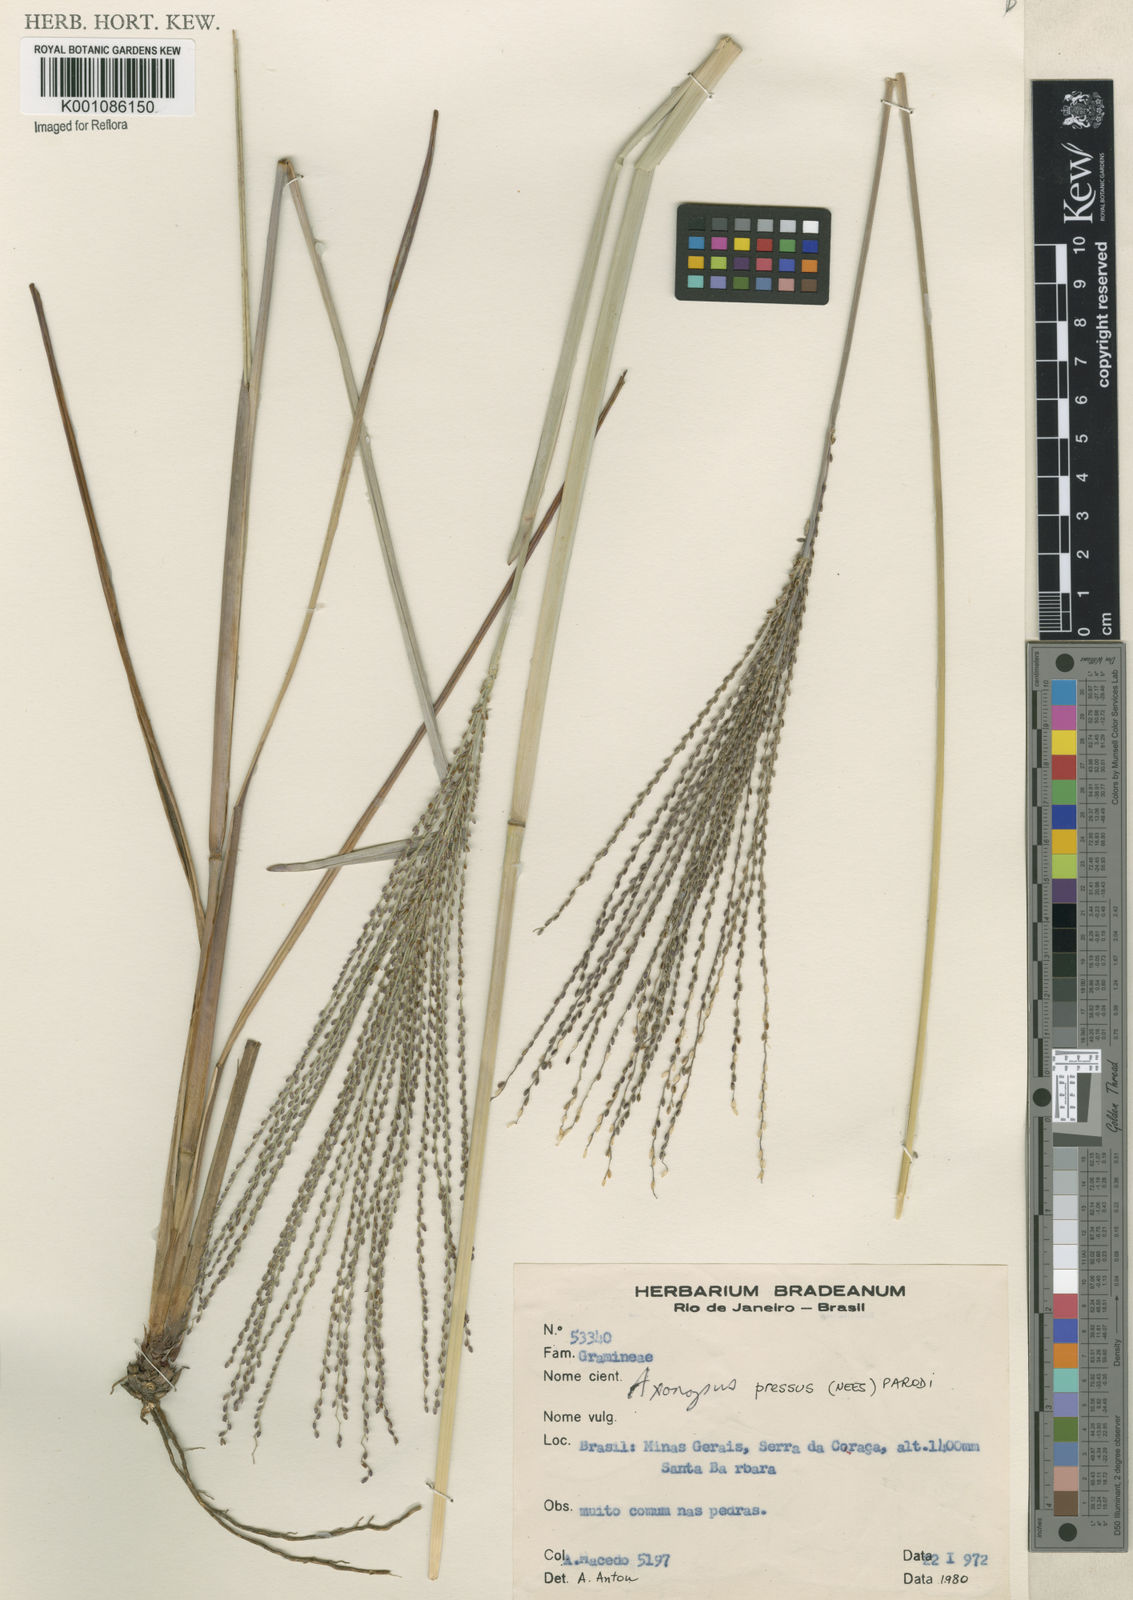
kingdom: Plantae
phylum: Tracheophyta
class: Liliopsida
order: Poales
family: Poaceae
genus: Axonopus
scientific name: Axonopus pressus
